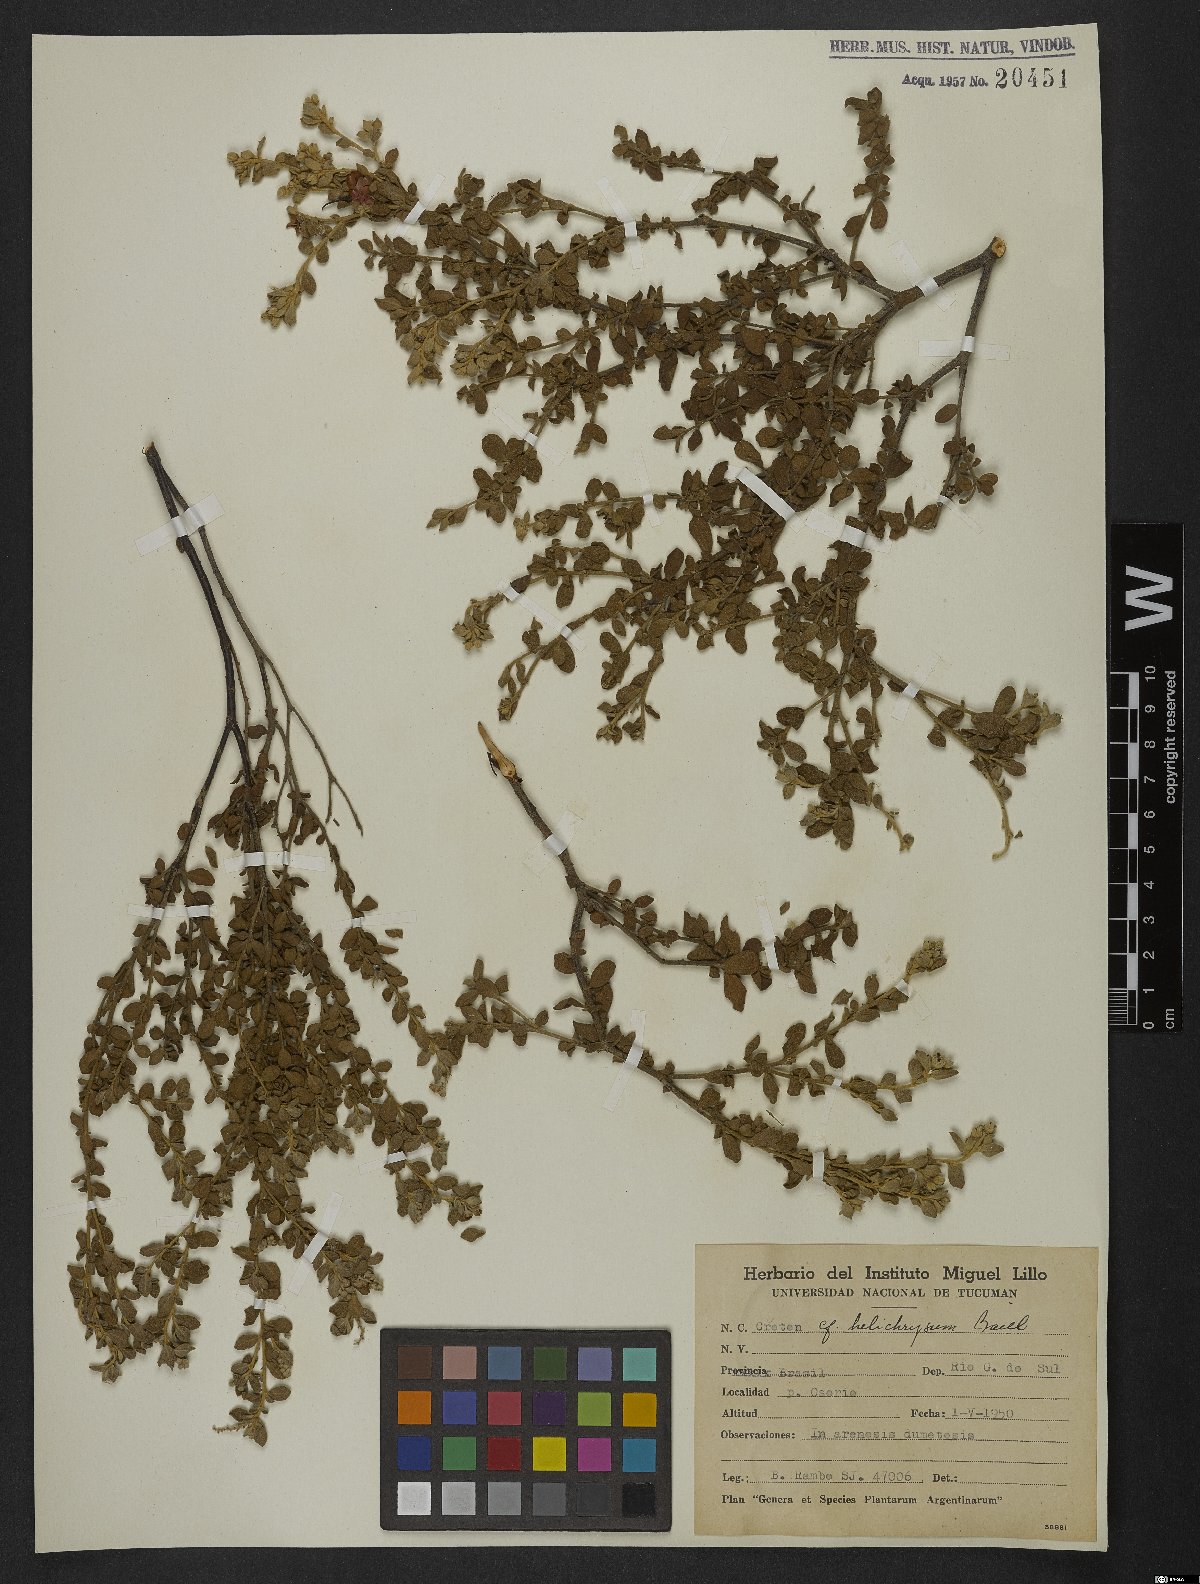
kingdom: Plantae
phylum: Tracheophyta
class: Magnoliopsida
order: Malpighiales
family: Euphorbiaceae
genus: Croton
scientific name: Croton helichrysum
